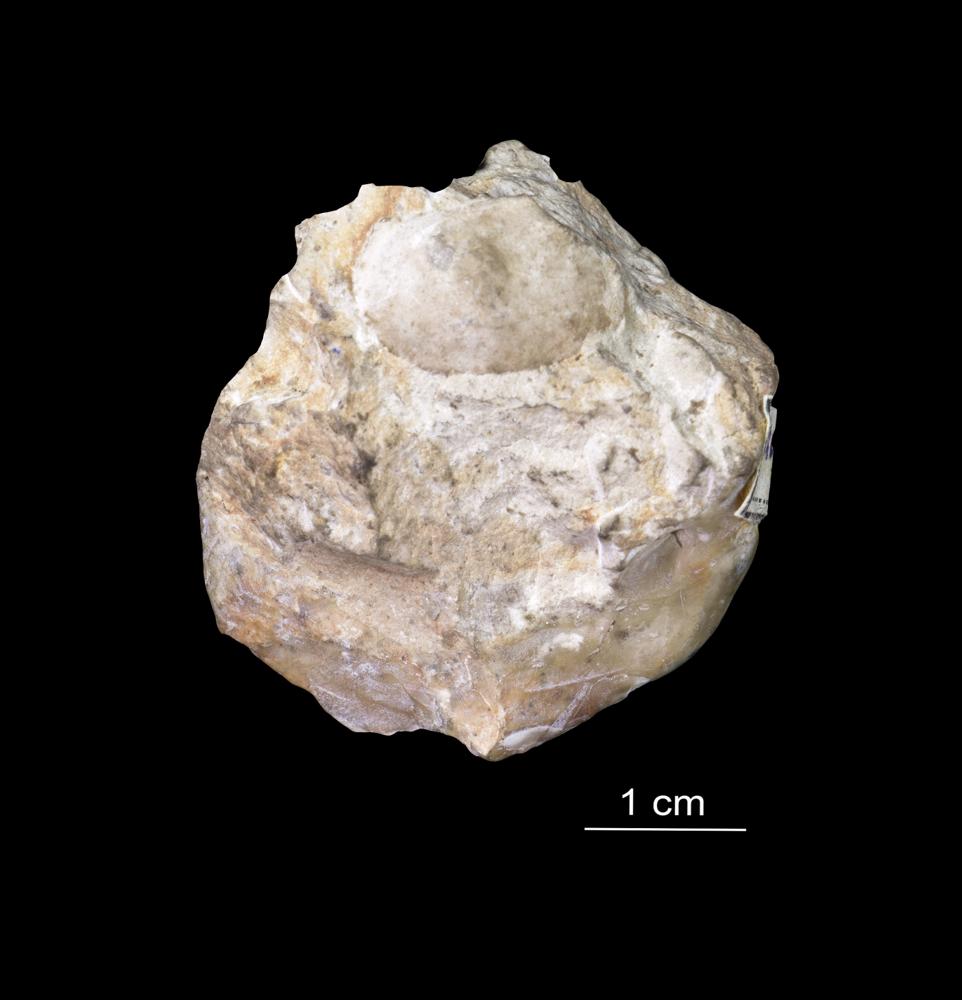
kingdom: Animalia
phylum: Arthropoda
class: Ostracoda
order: Platycopida
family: Leperditiidae
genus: Leperditia
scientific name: Leperditia
